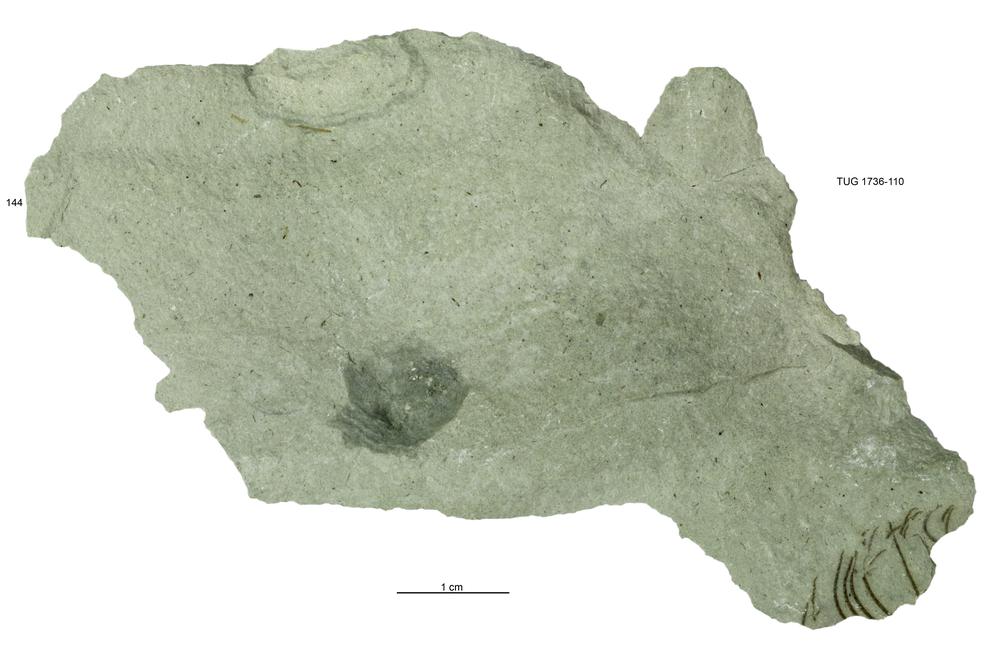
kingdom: Animalia
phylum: Echinodermata
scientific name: Echinodermata
